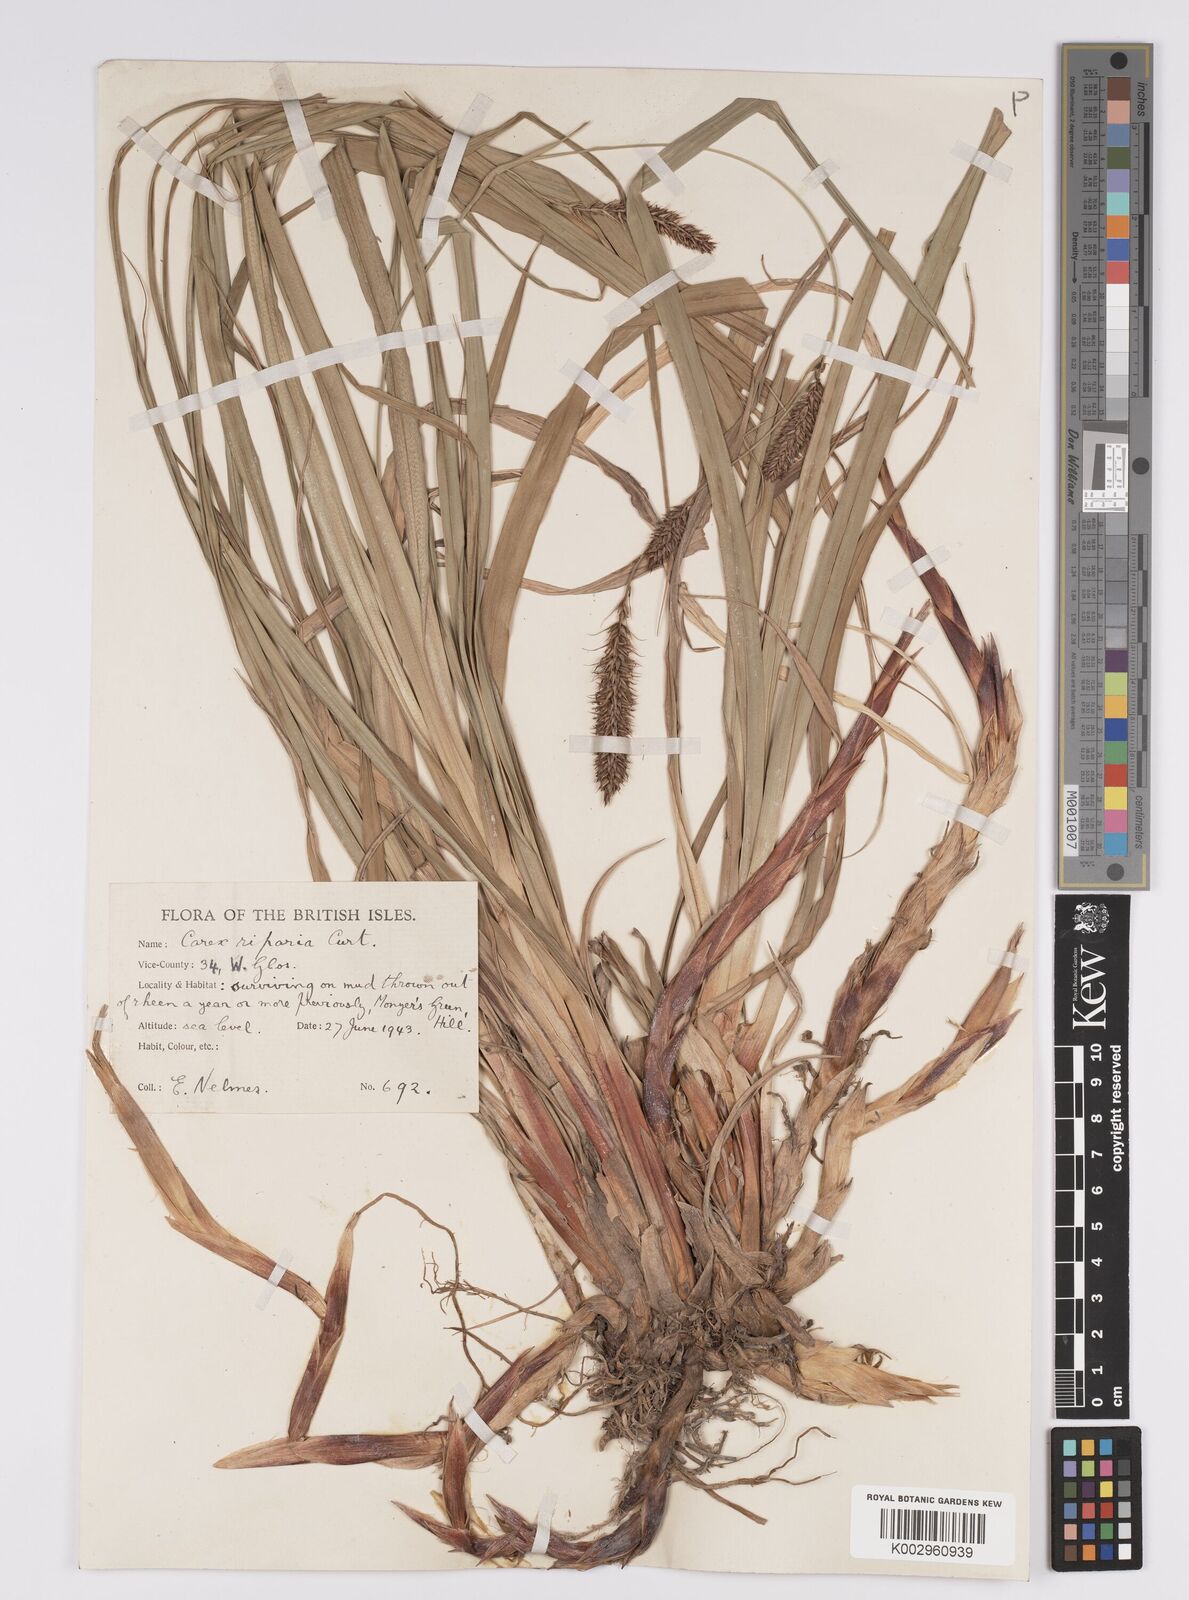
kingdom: Plantae
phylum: Tracheophyta
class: Liliopsida
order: Poales
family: Cyperaceae
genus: Carex
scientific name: Carex riparia
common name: Greater pond-sedge
